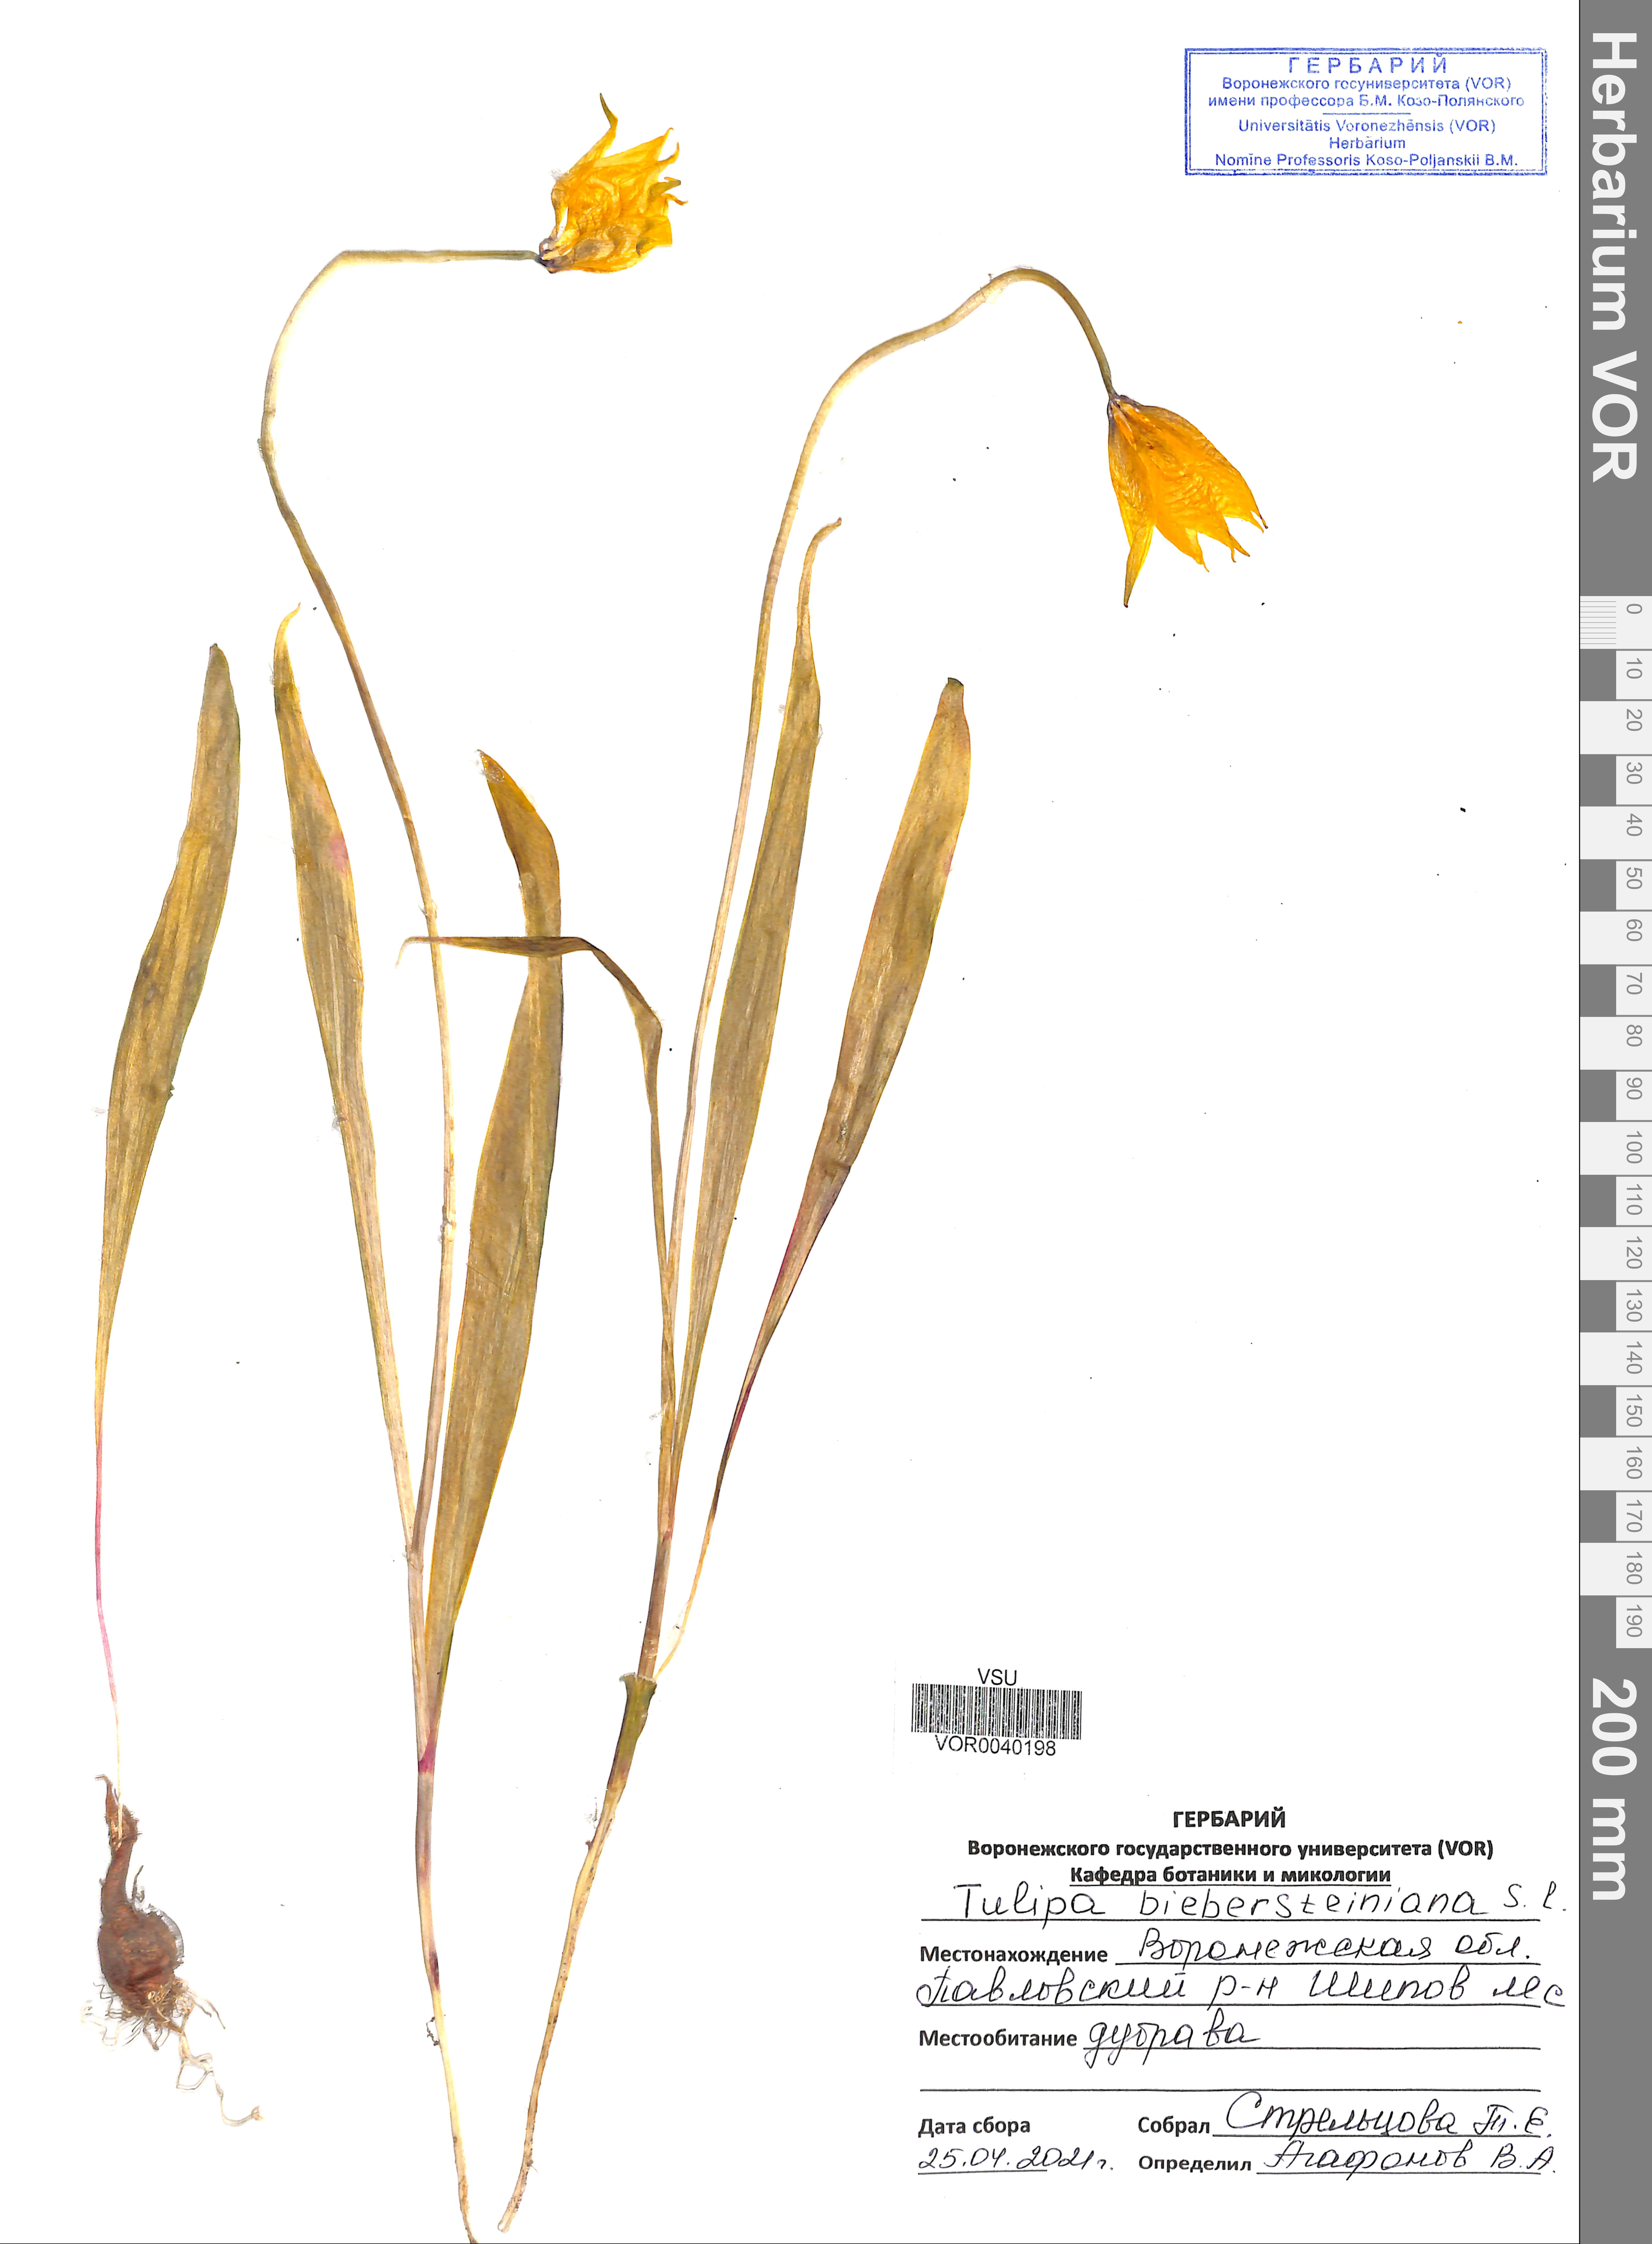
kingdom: Plantae
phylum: Tracheophyta
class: Liliopsida
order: Liliales
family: Liliaceae
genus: Tulipa
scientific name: Tulipa sylvestris
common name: Wild tulip
